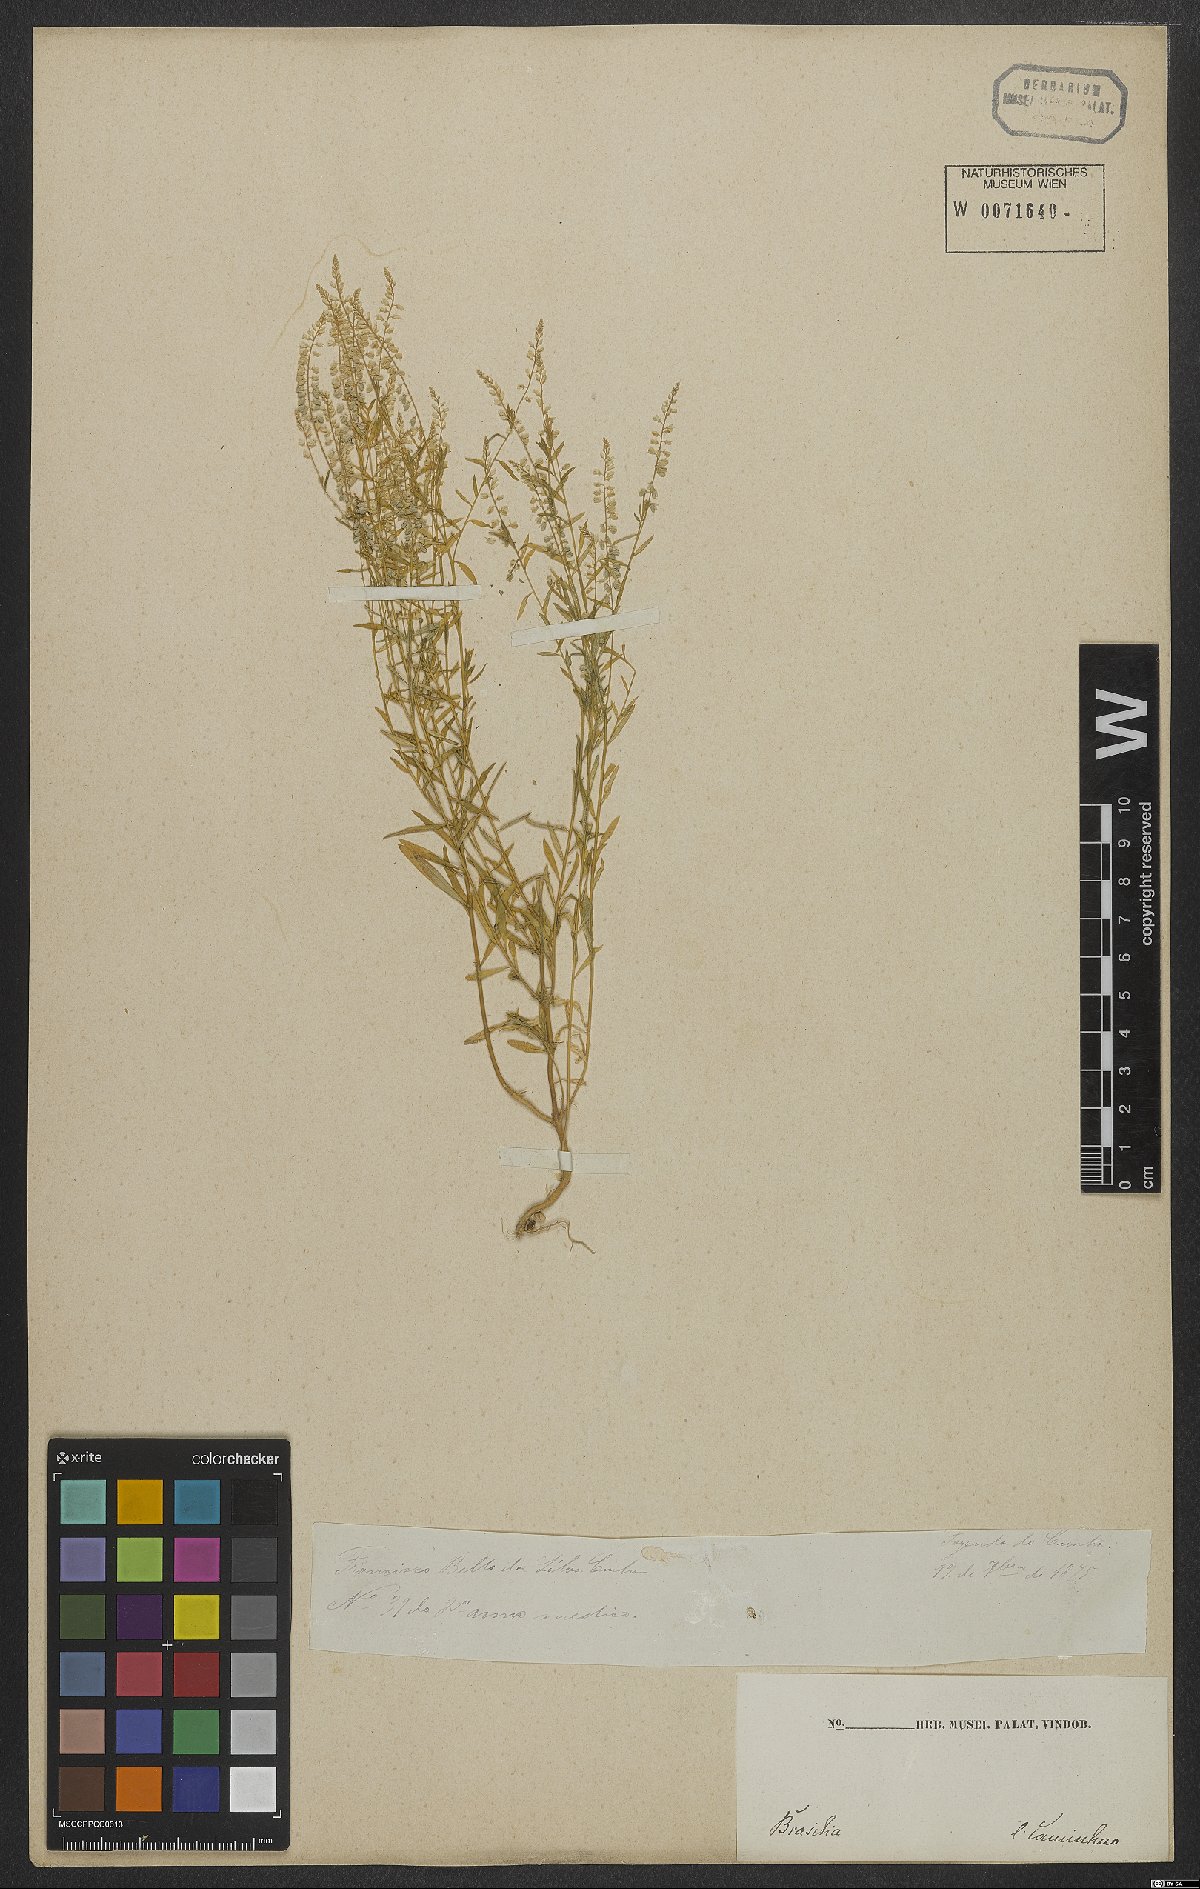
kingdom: Plantae
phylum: Tracheophyta
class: Magnoliopsida
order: Fabales
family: Polygalaceae
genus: Polygala
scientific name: Polygala exilis
